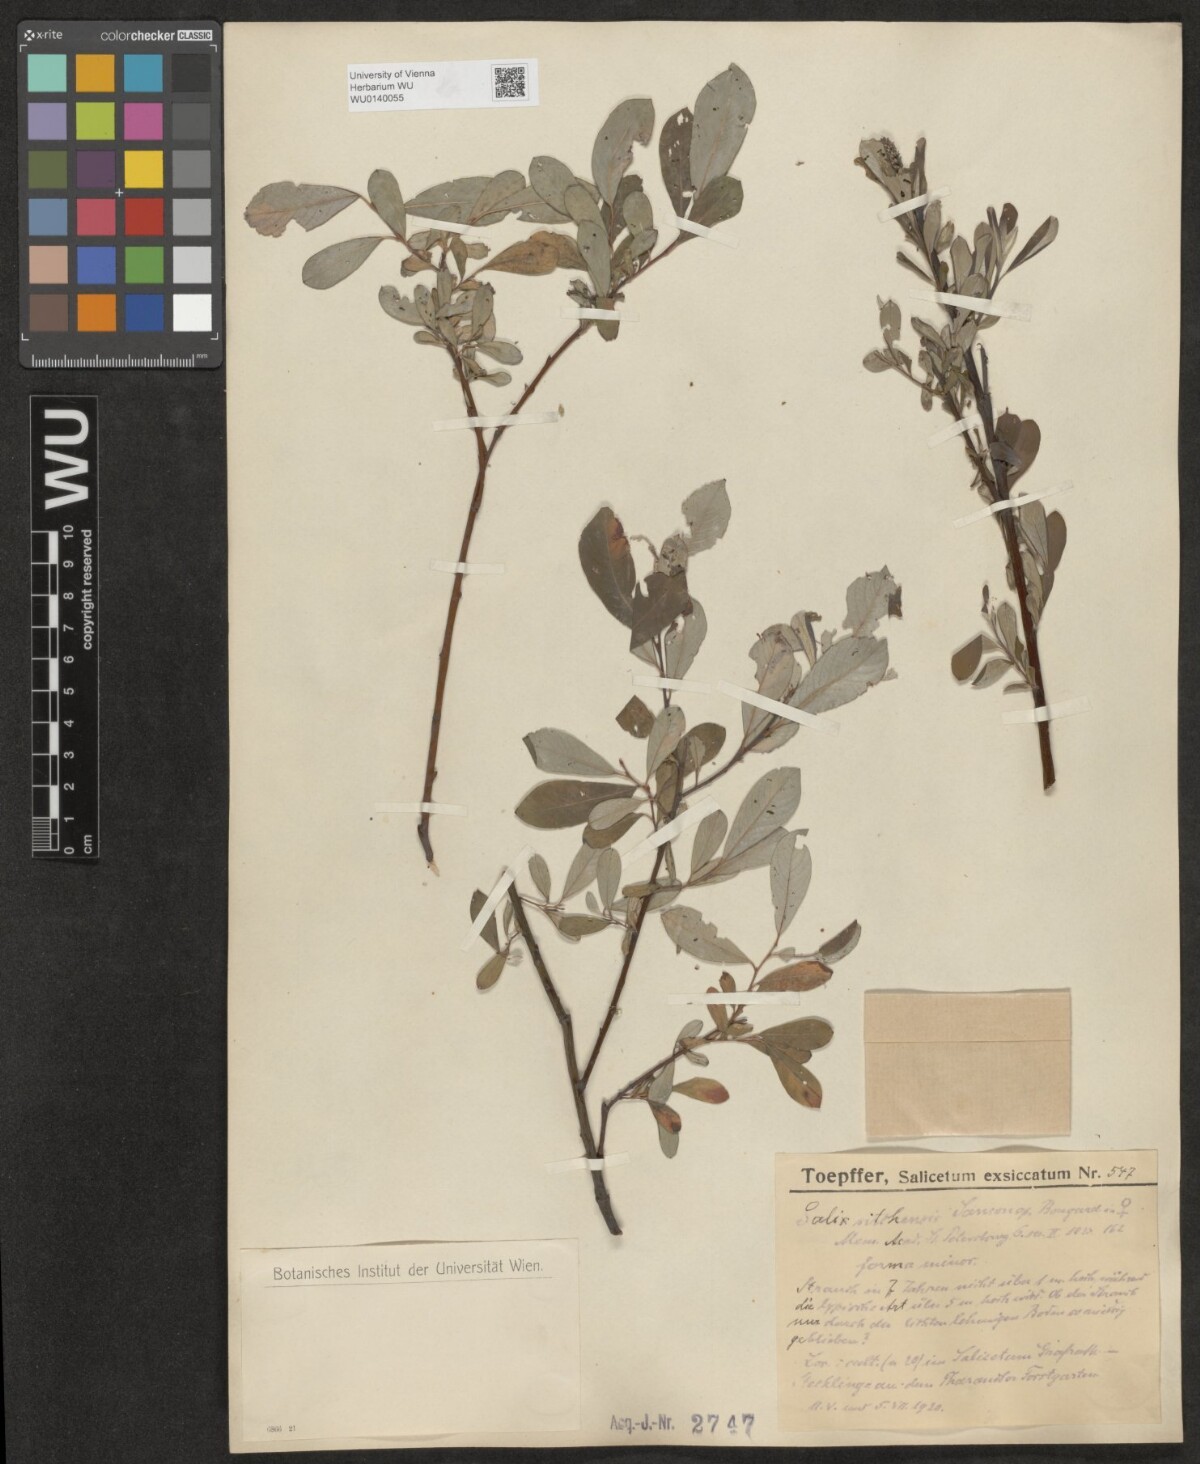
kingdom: Plantae
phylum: Tracheophyta
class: Magnoliopsida
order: Malpighiales
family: Salicaceae
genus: Salix
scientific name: Salix sitchensis
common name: Sitka willow
